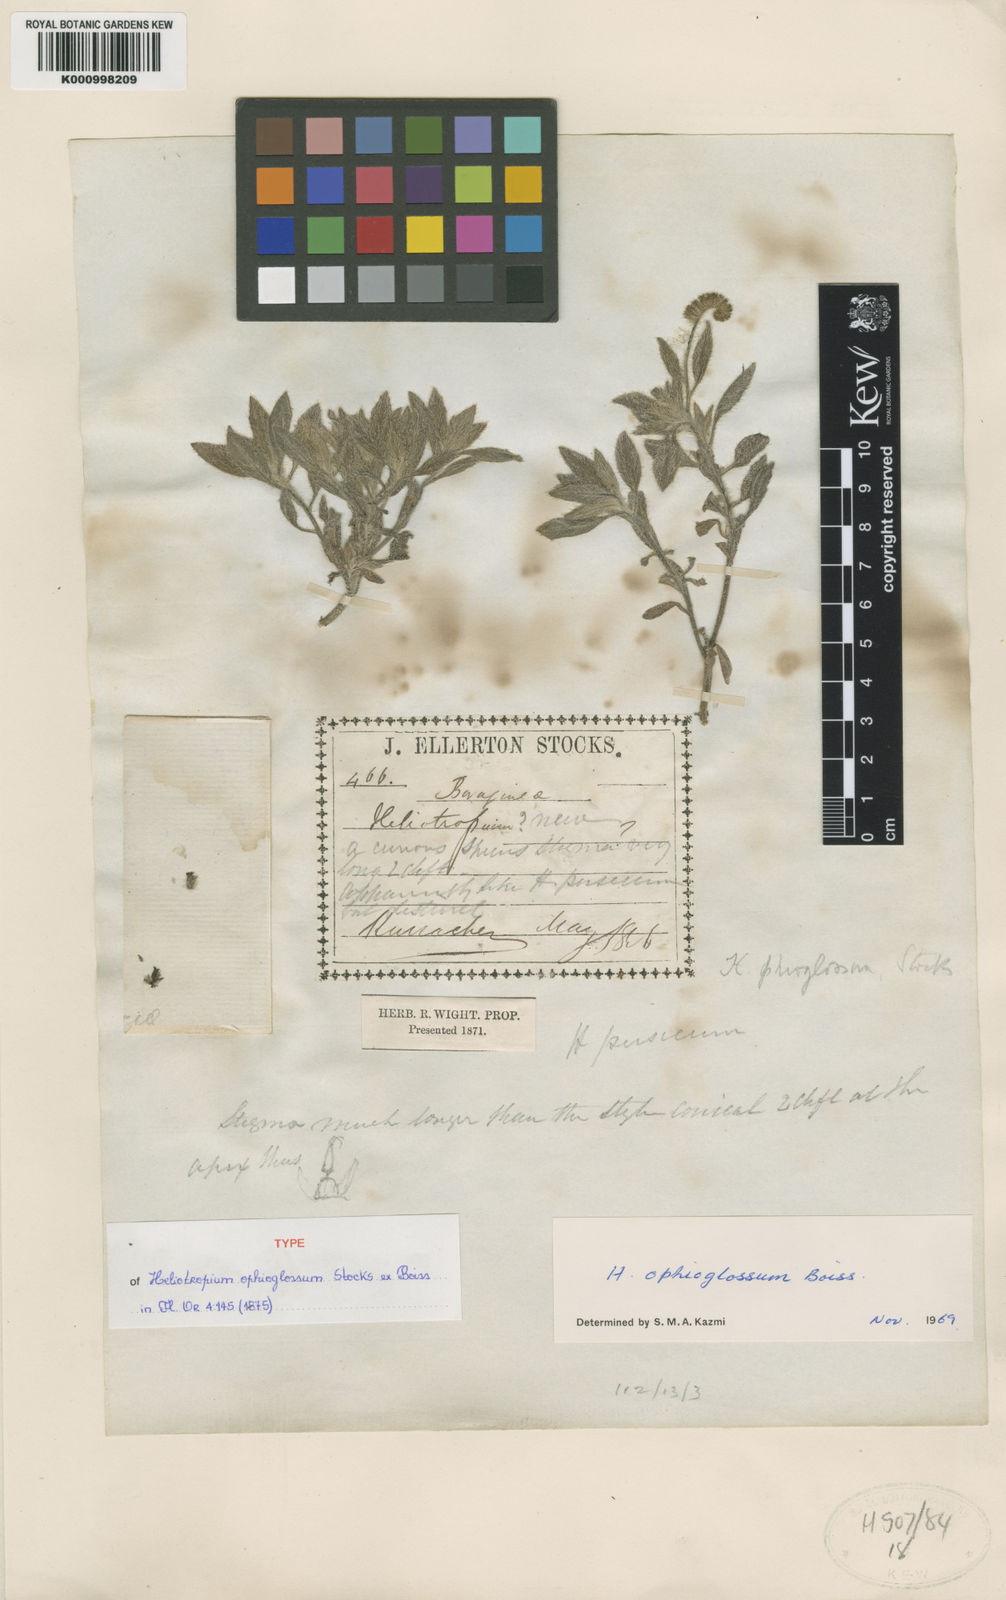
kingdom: Plantae
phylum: Tracheophyta
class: Magnoliopsida
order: Boraginales
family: Heliotropiaceae
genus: Heliotropium
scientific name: Heliotropium ophioglossum
